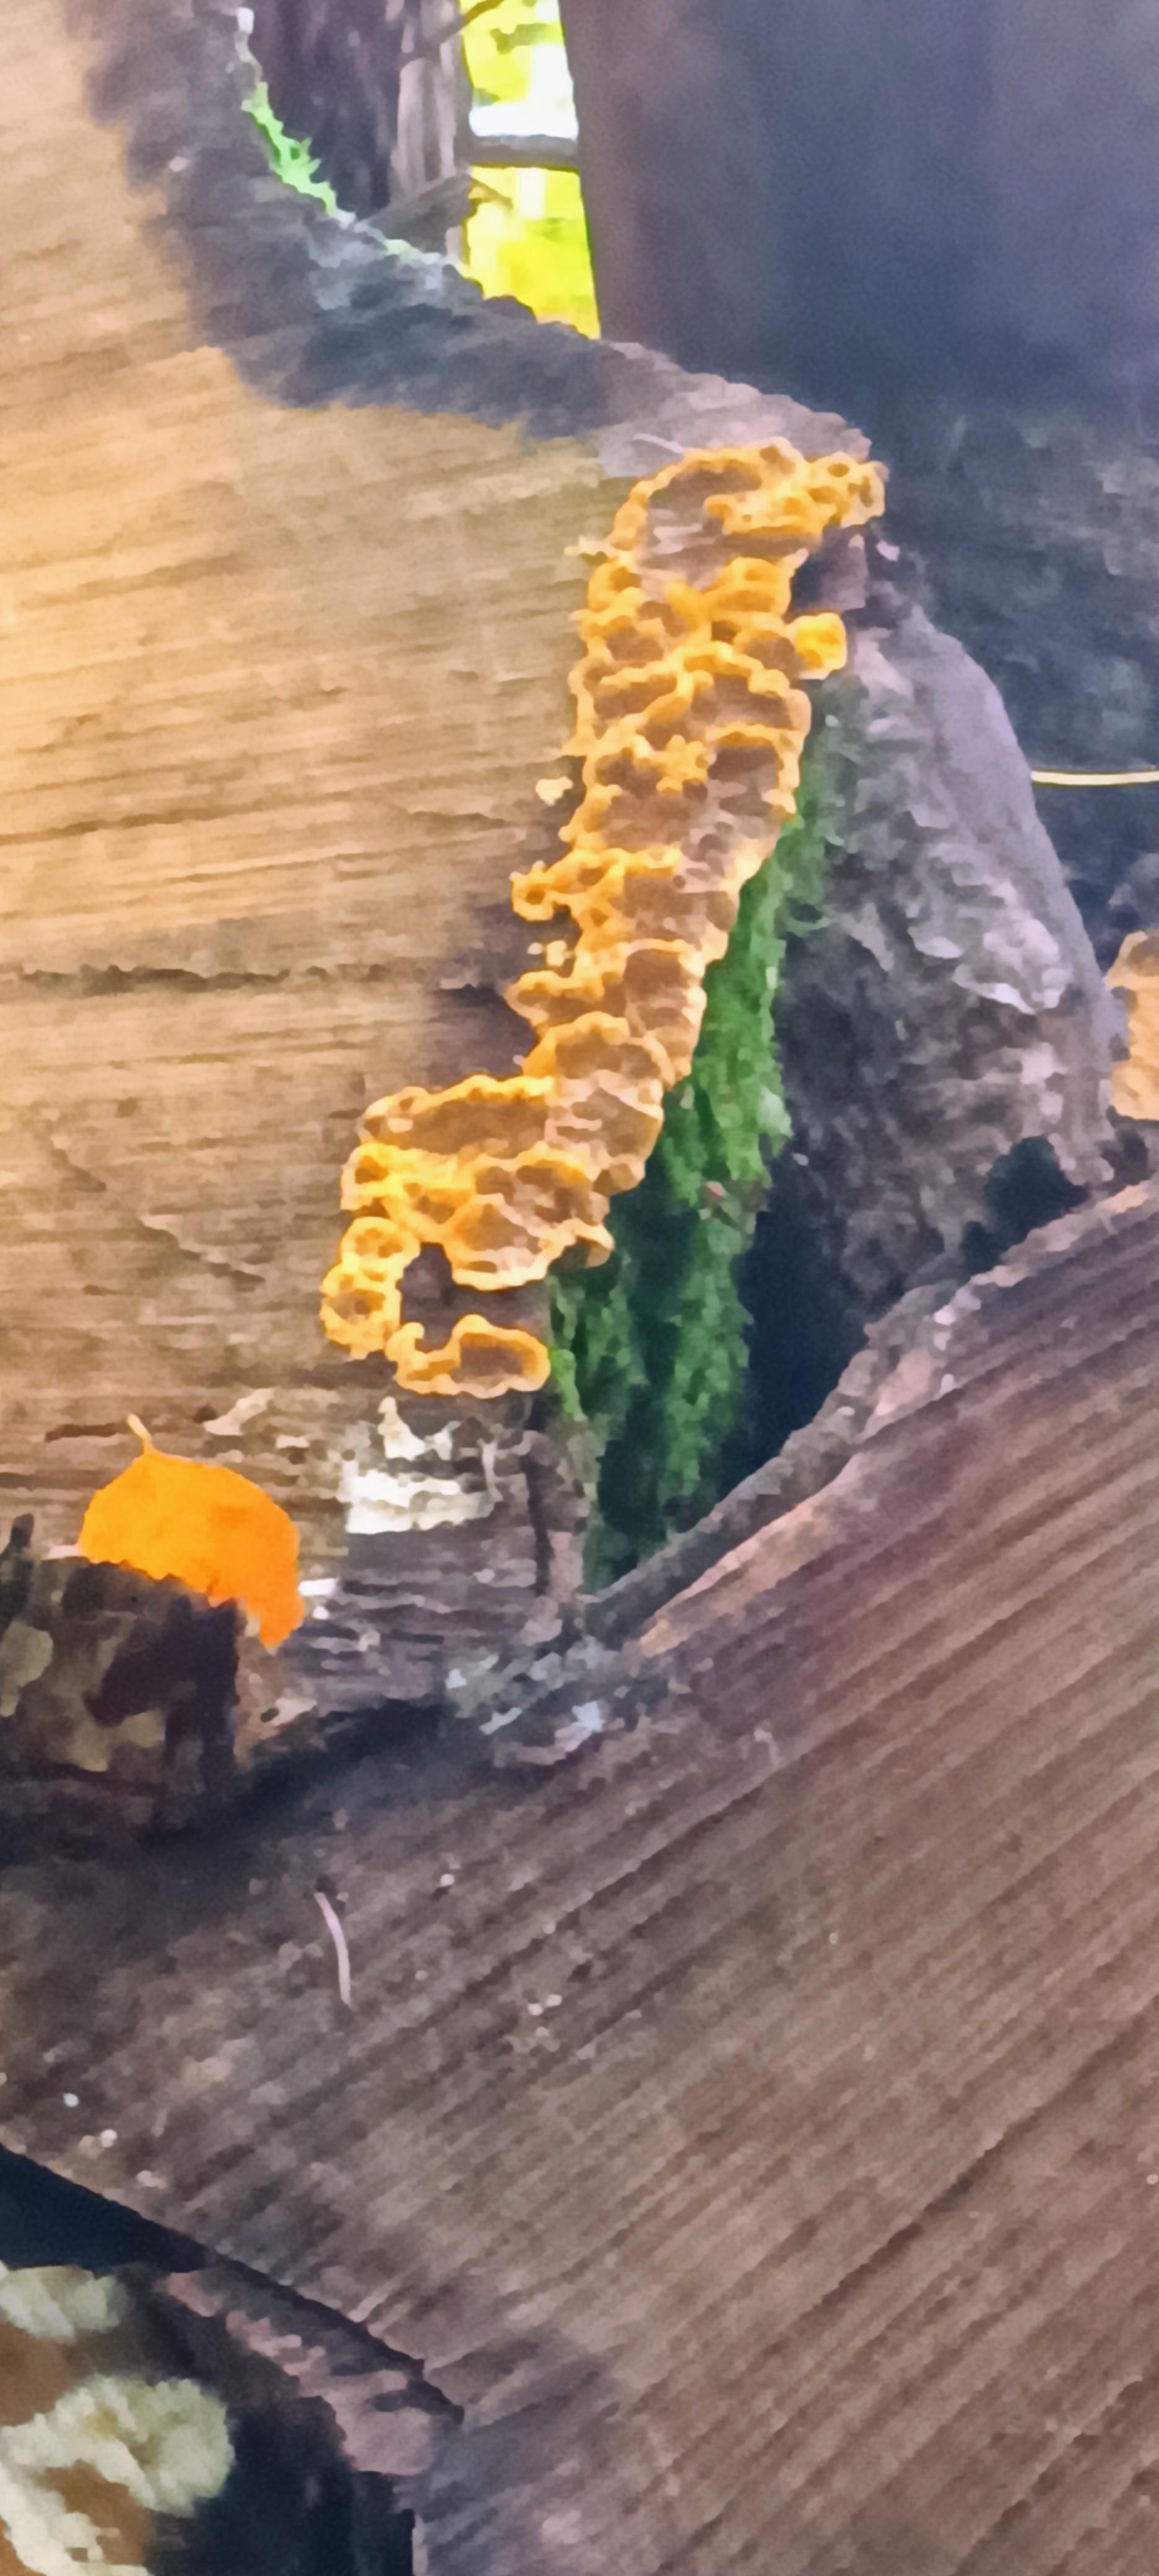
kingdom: Fungi
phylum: Basidiomycota
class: Agaricomycetes
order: Russulales
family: Stereaceae
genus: Stereum
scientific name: Stereum hirsutum
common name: håret lædersvamp
